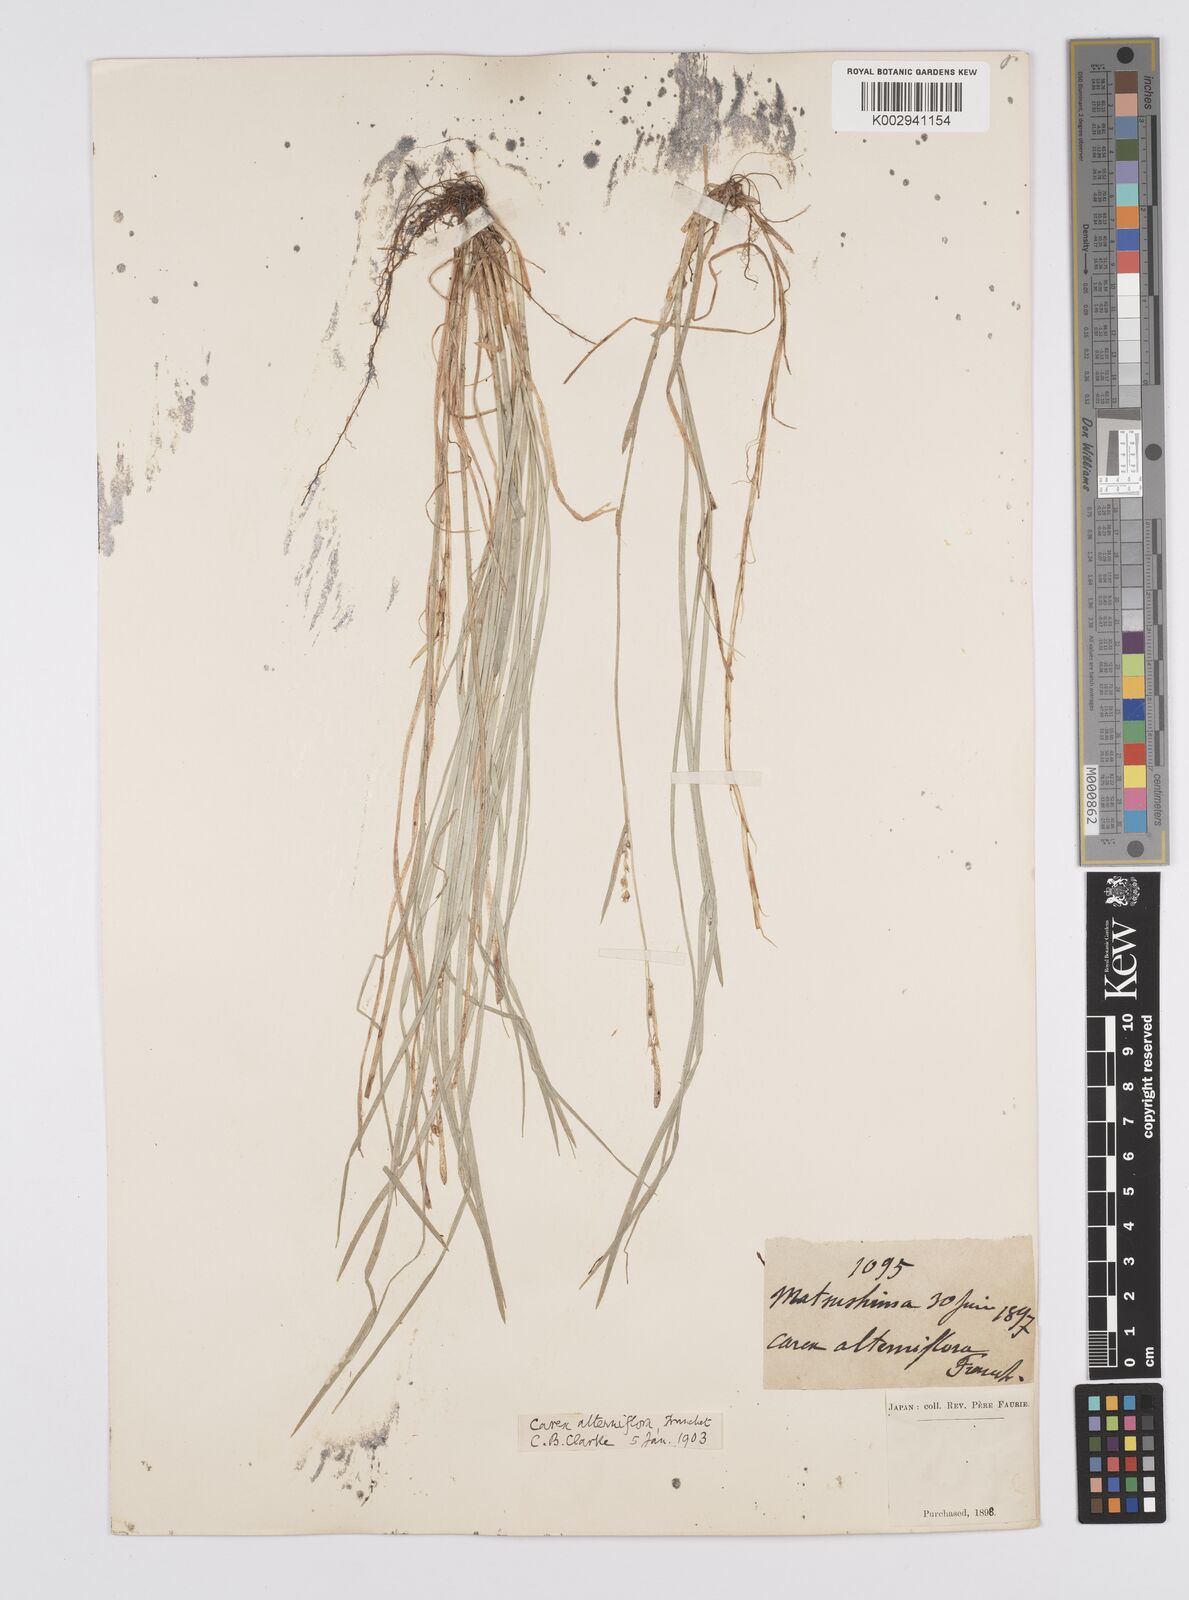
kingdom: Plantae
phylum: Tracheophyta
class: Liliopsida
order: Poales
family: Cyperaceae
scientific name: Cyperaceae
